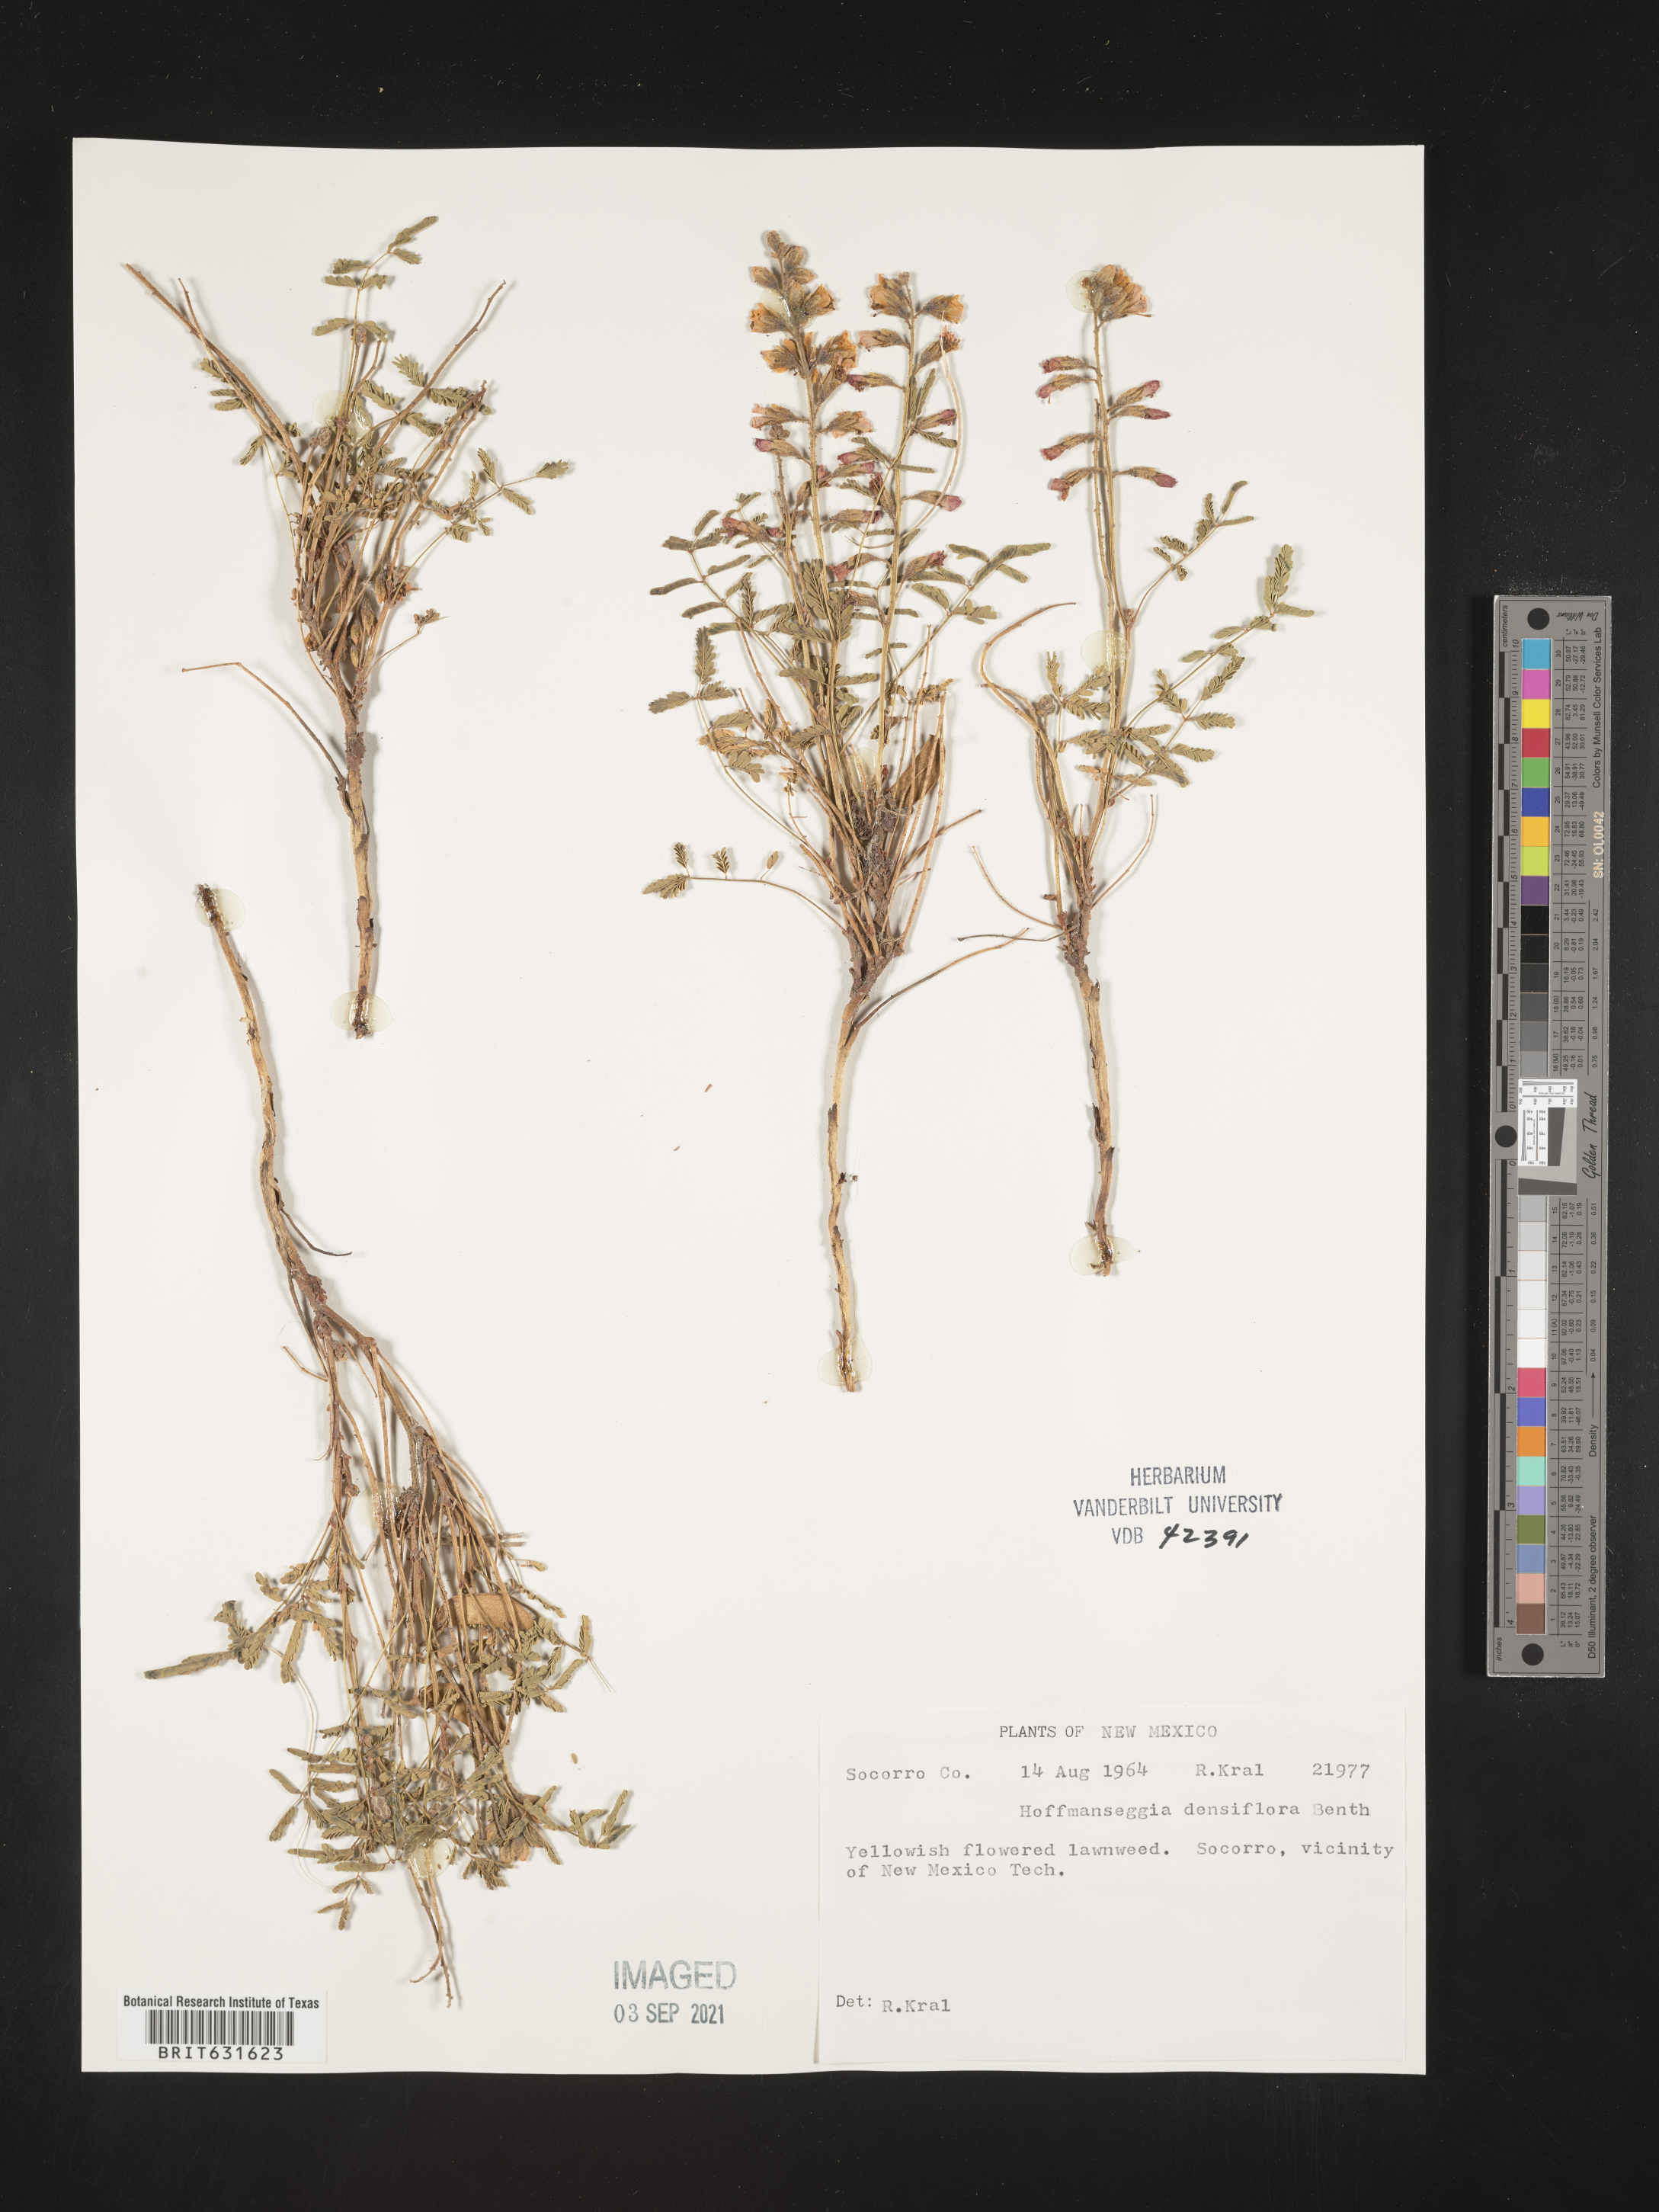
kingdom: Plantae
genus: Hoffmanseggia
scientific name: Hoffmanseggia
